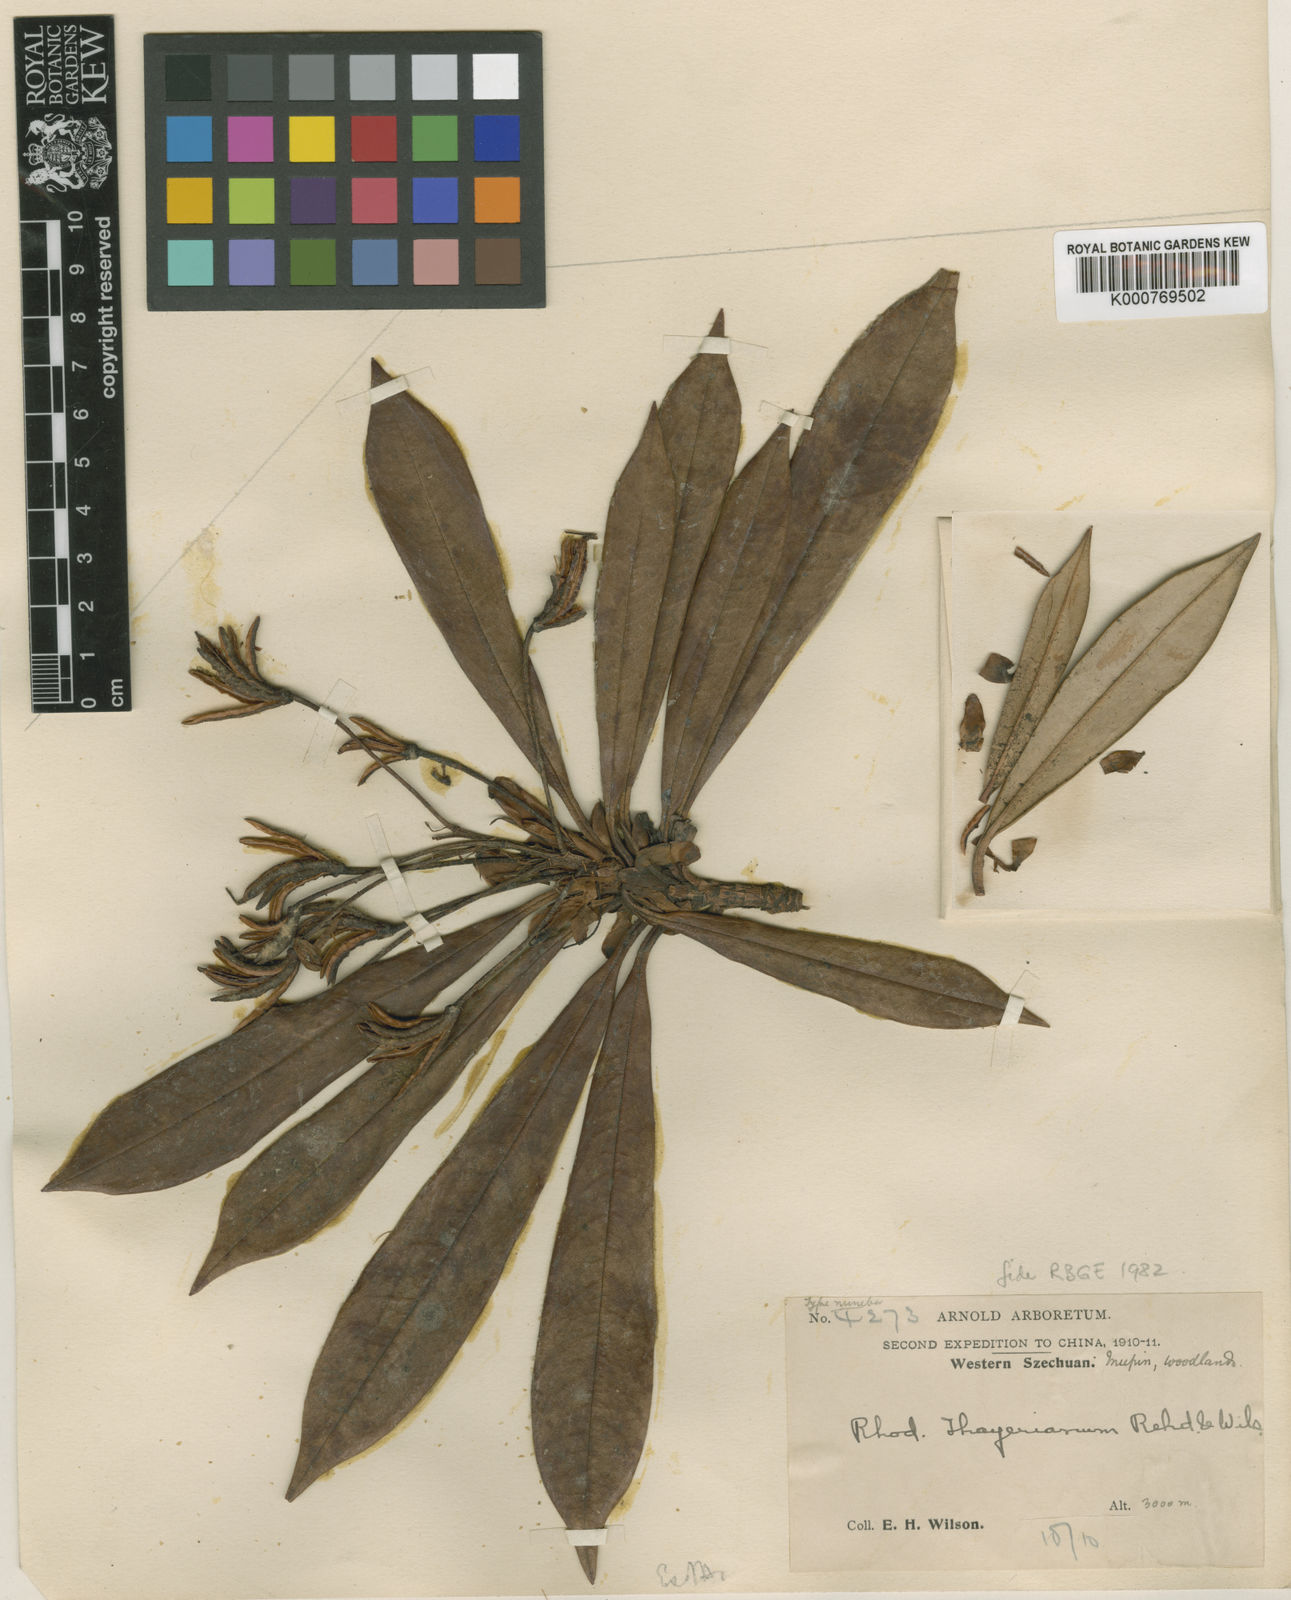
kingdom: Plantae
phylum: Tracheophyta
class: Magnoliopsida
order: Ericales
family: Ericaceae
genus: Rhododendron
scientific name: Rhododendron thayerianum
